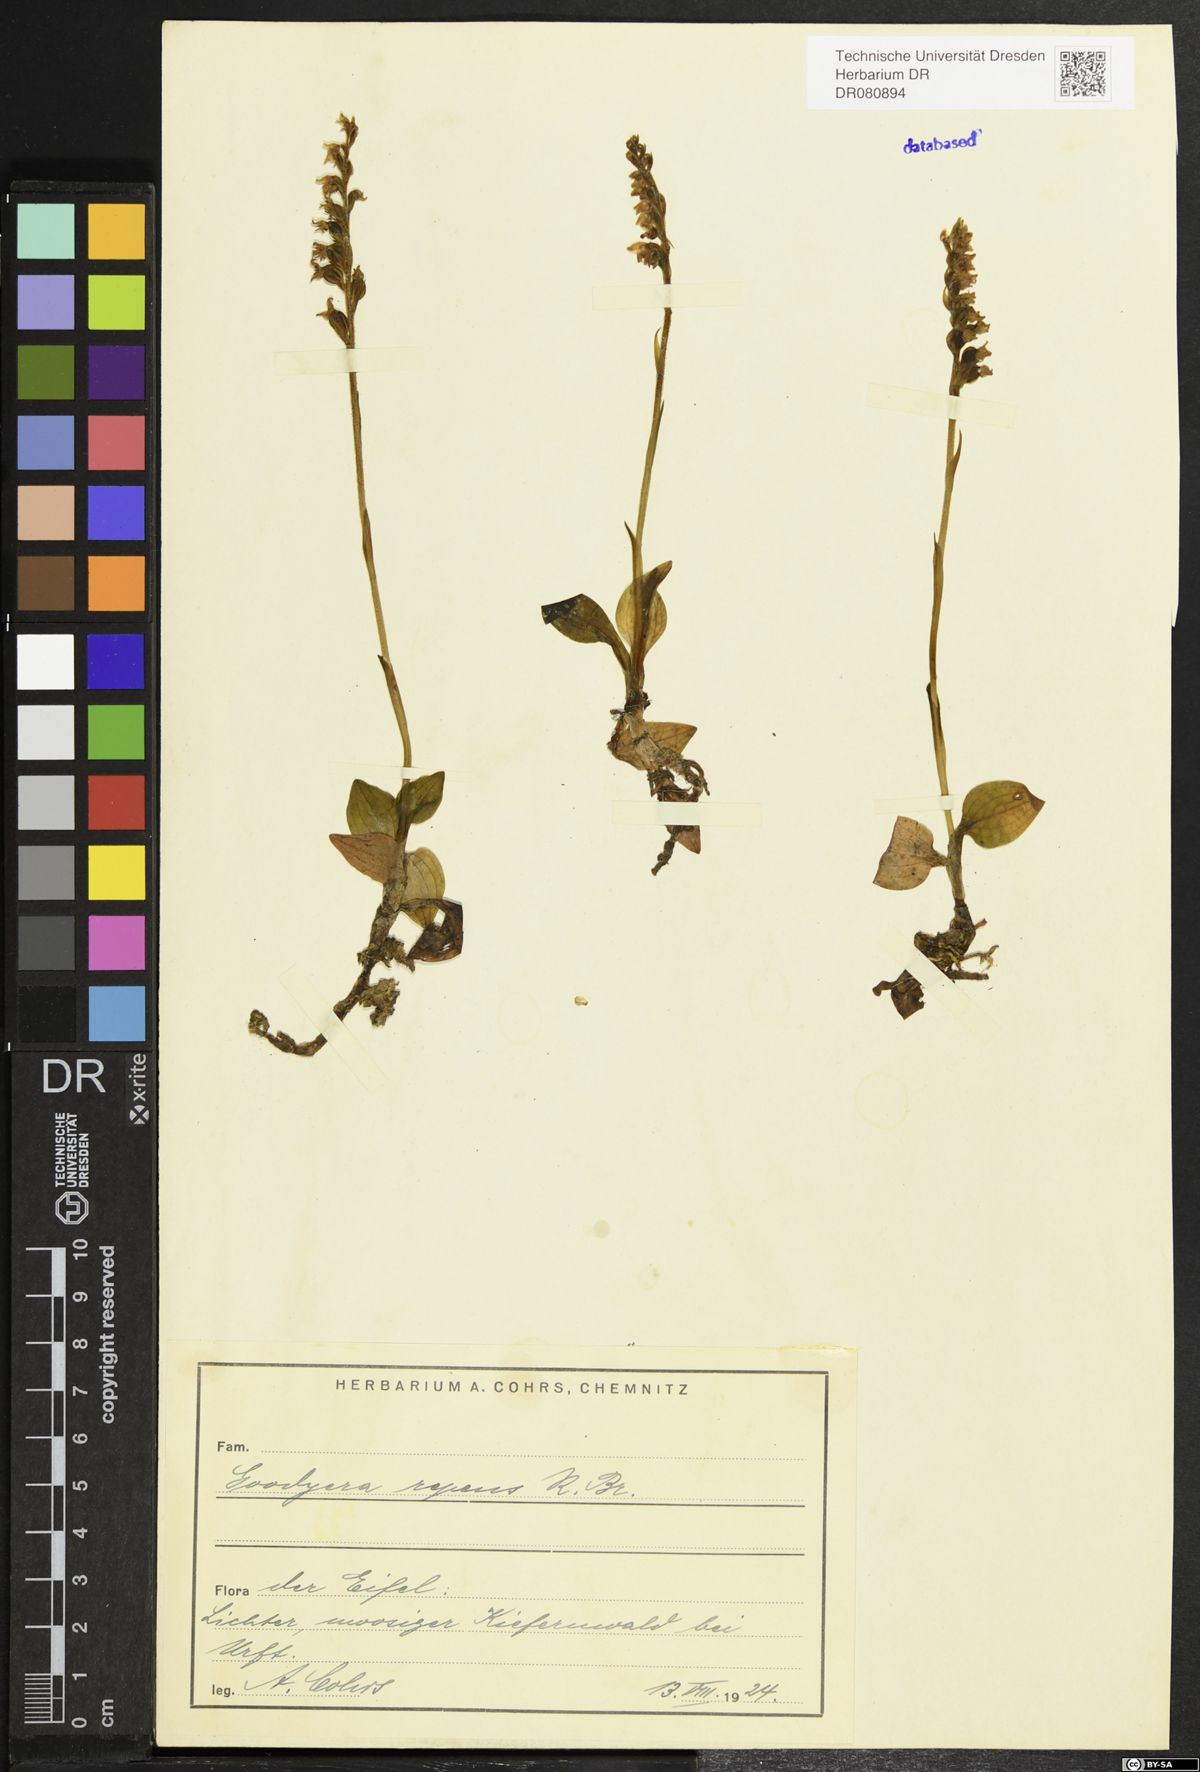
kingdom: Plantae
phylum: Tracheophyta
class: Liliopsida
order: Asparagales
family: Orchidaceae
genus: Goodyera
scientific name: Goodyera repens
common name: Creeping lady's-tresses
